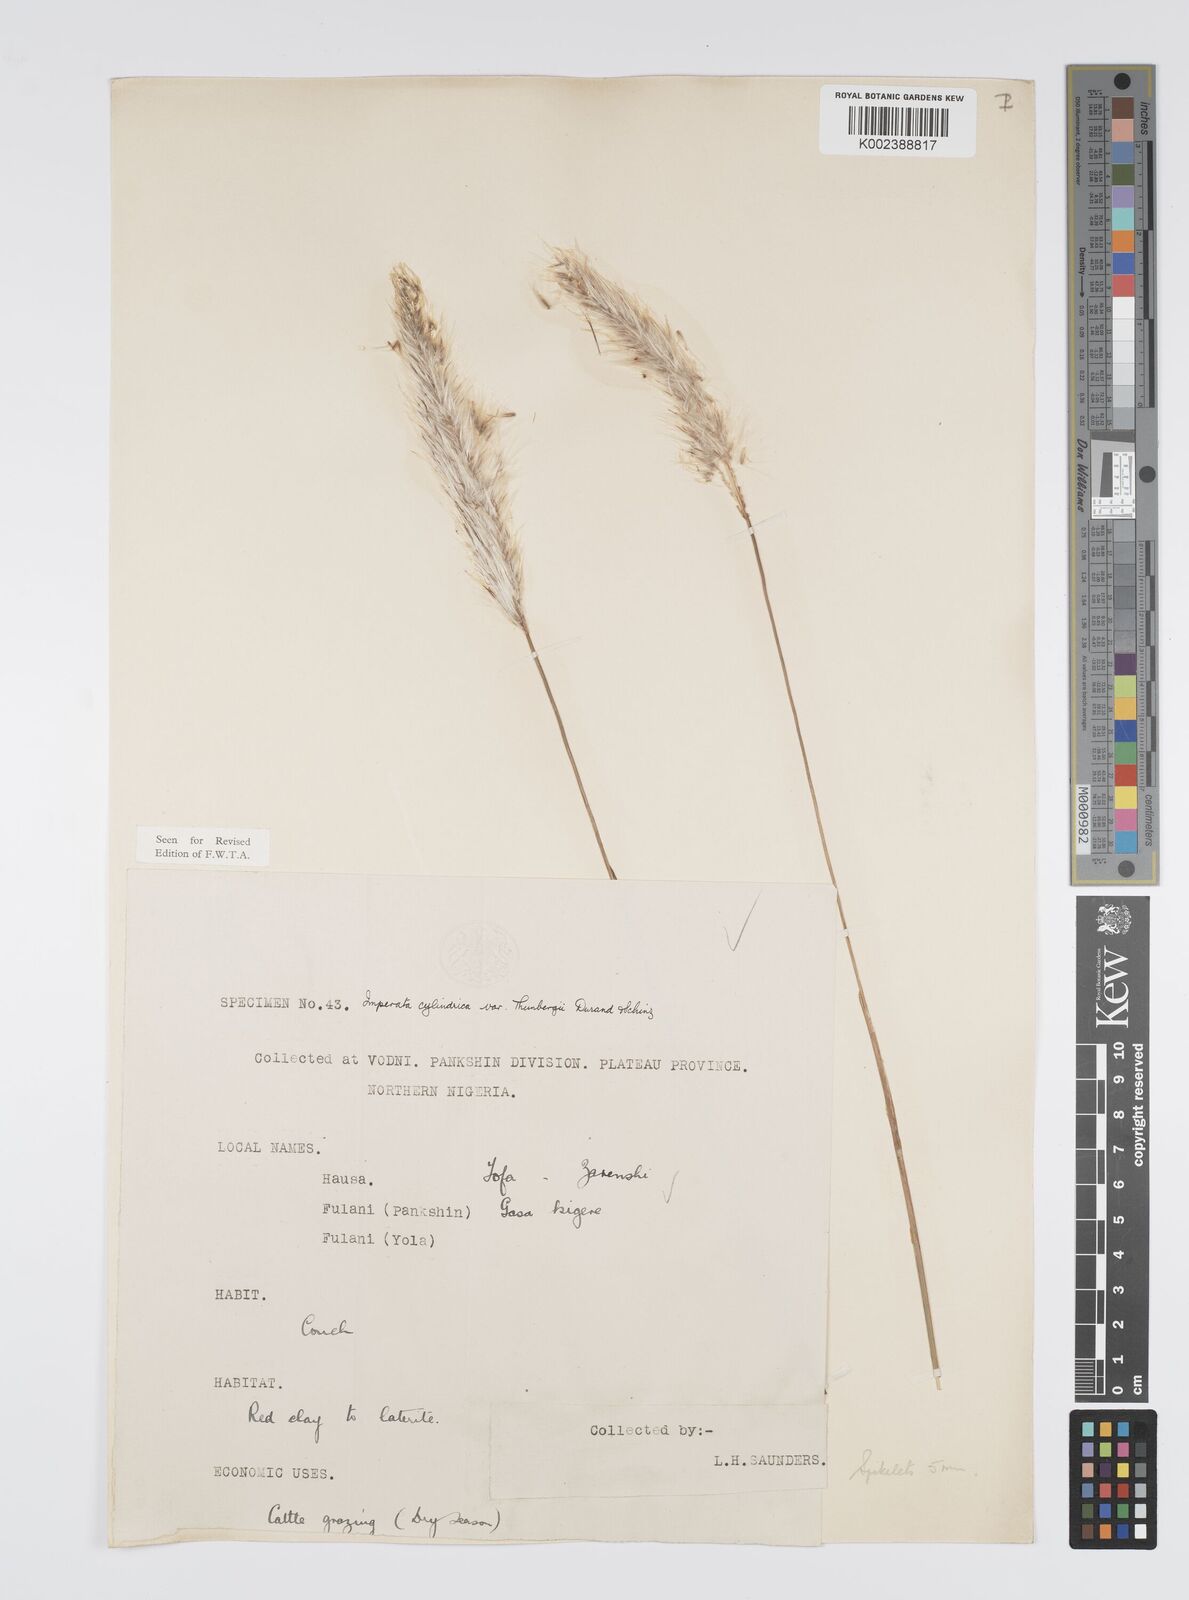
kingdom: Plantae
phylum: Tracheophyta
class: Liliopsida
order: Poales
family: Poaceae
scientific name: Poaceae
